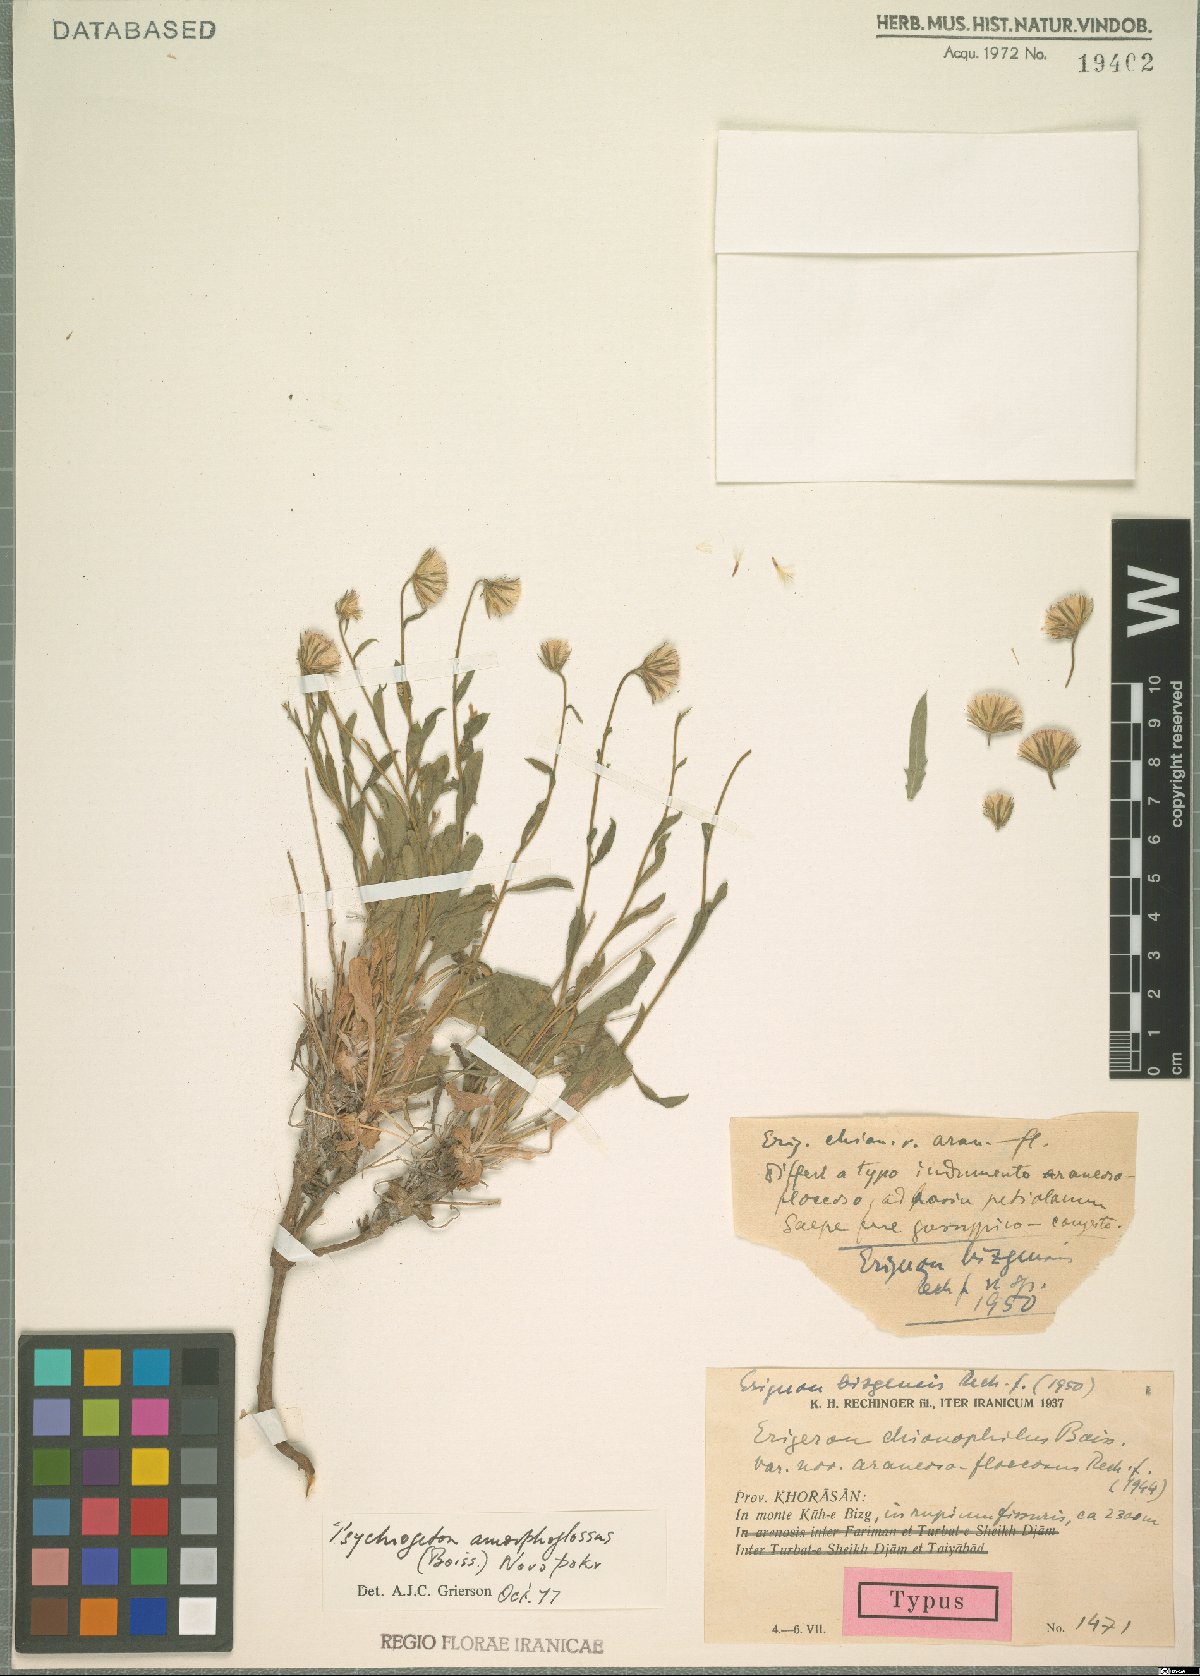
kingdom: Plantae
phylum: Tracheophyta
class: Magnoliopsida
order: Asterales
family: Asteraceae
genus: Psychrogeton
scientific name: Psychrogeton amorphoglossus
